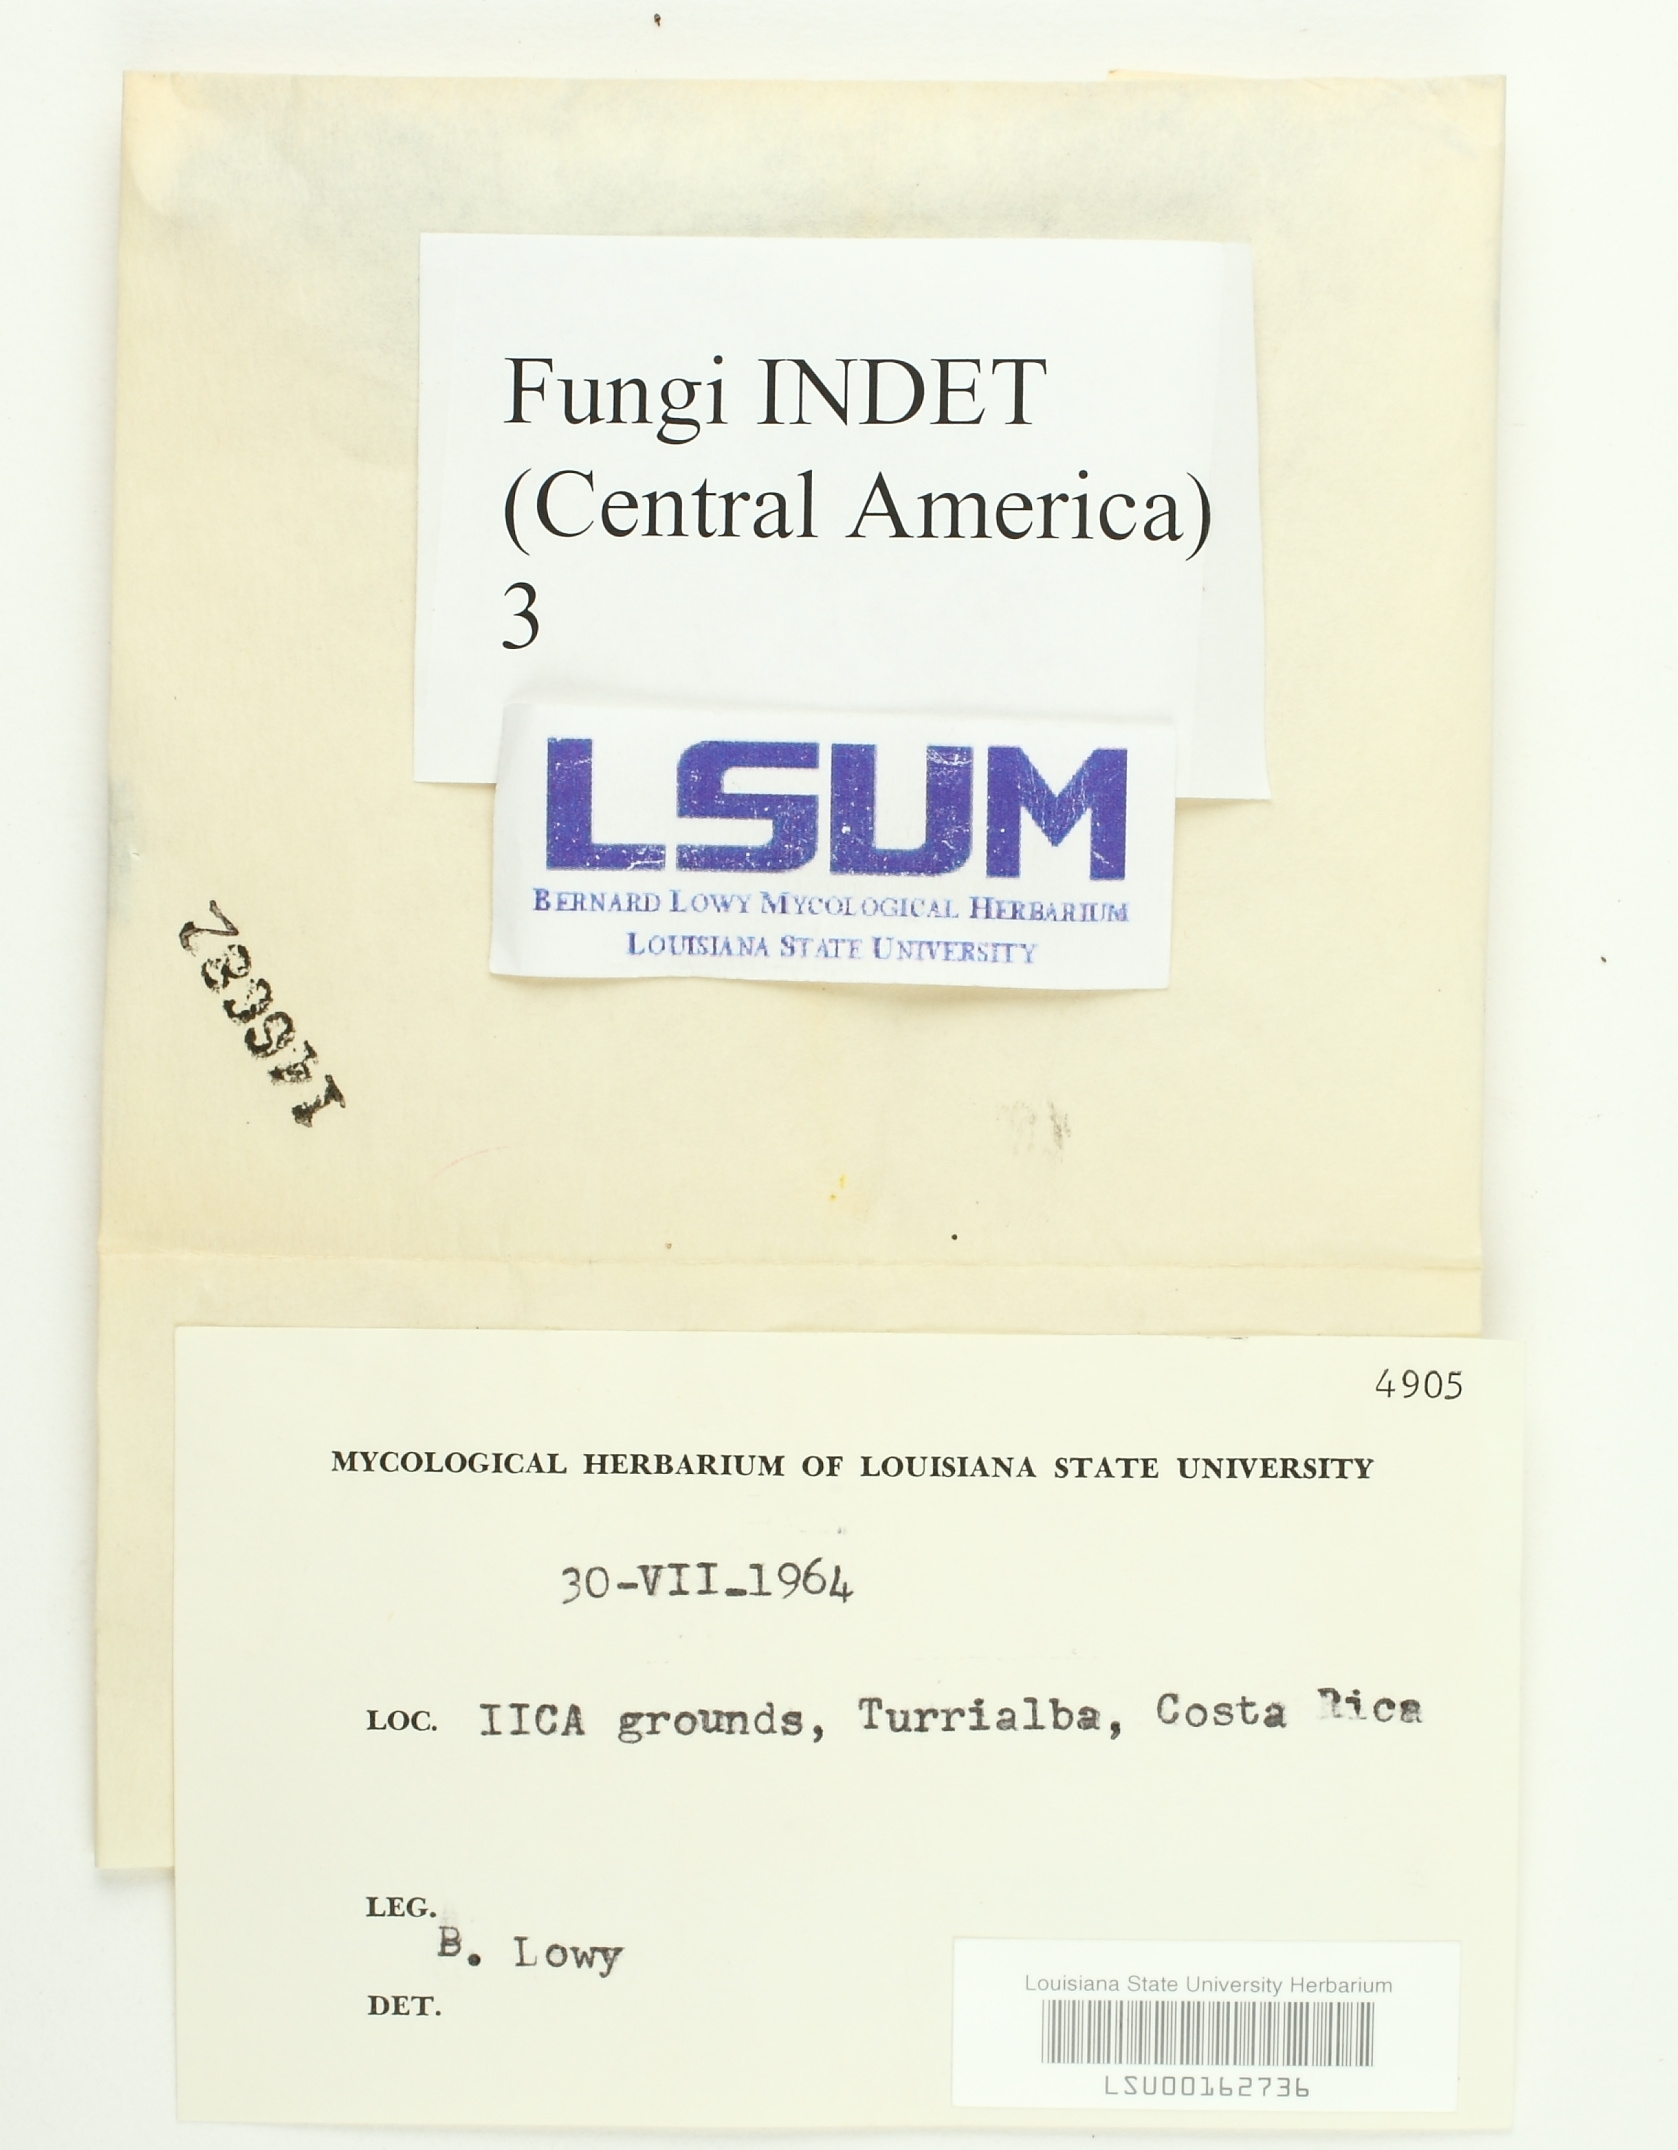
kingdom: Fungi
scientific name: Fungi
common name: Fungi
